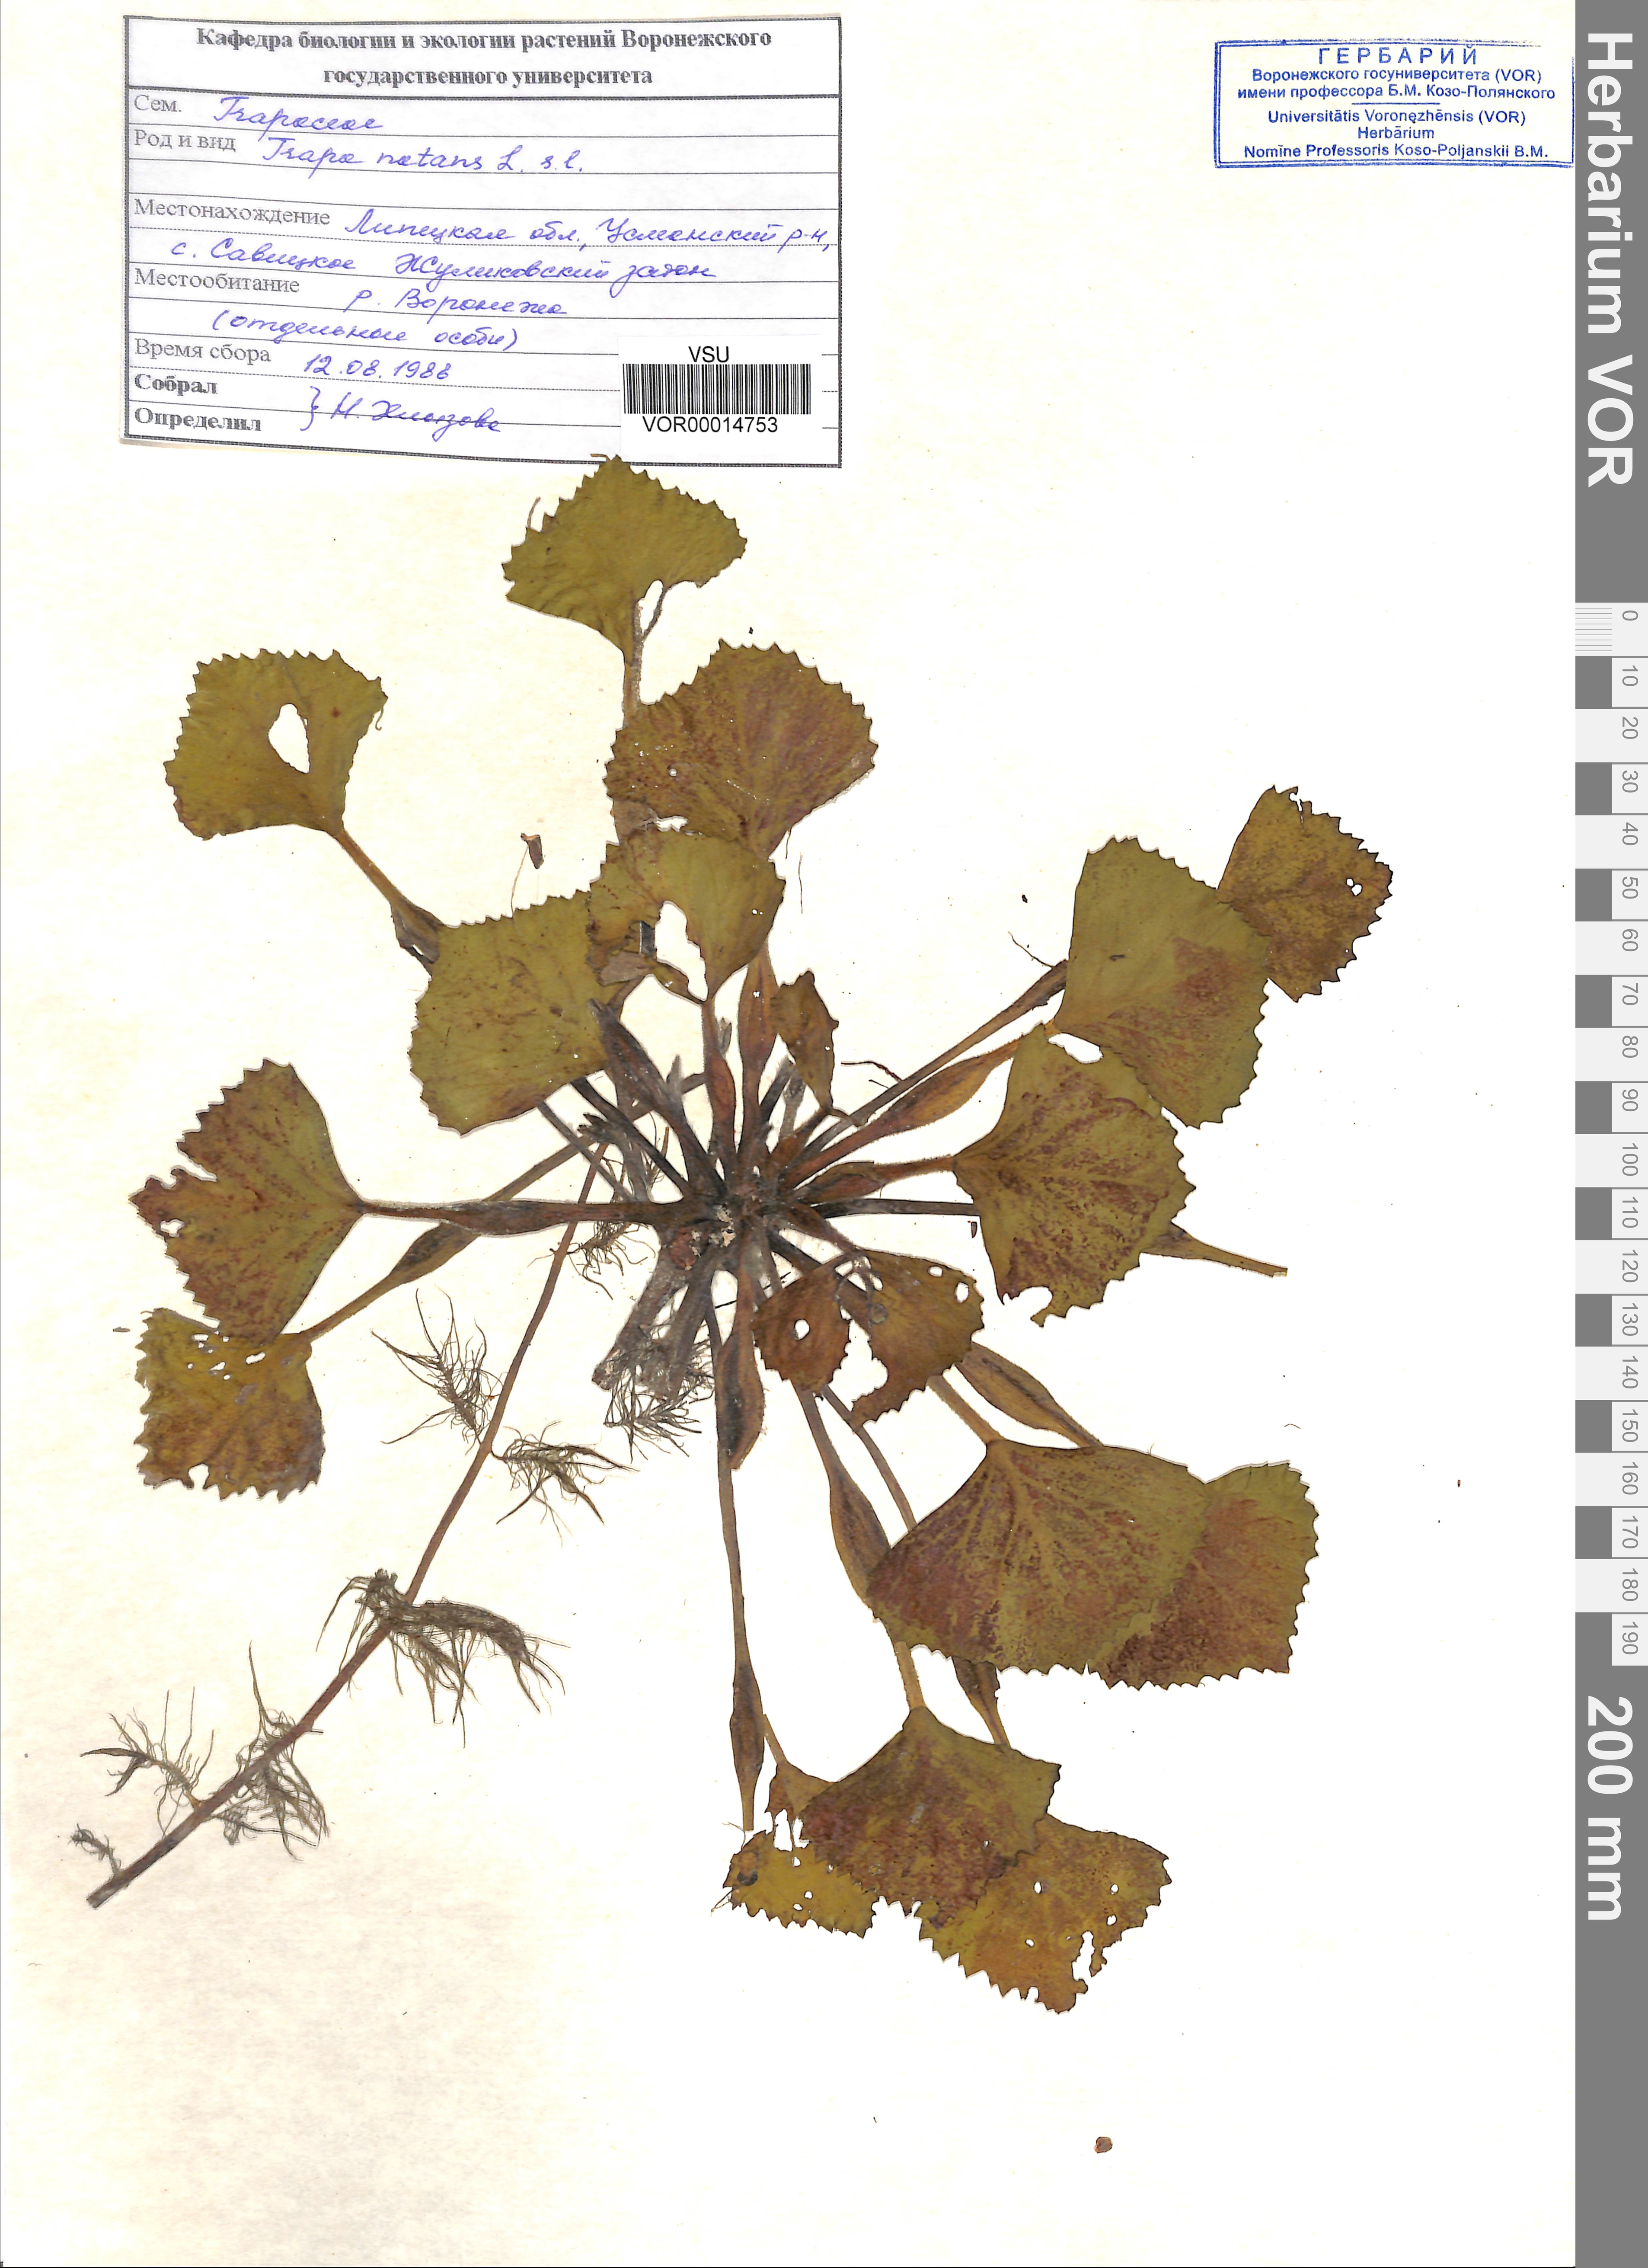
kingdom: Plantae
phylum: Tracheophyta
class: Magnoliopsida
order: Myrtales
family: Lythraceae
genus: Trapa
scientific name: Trapa natans
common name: Water chestnut
